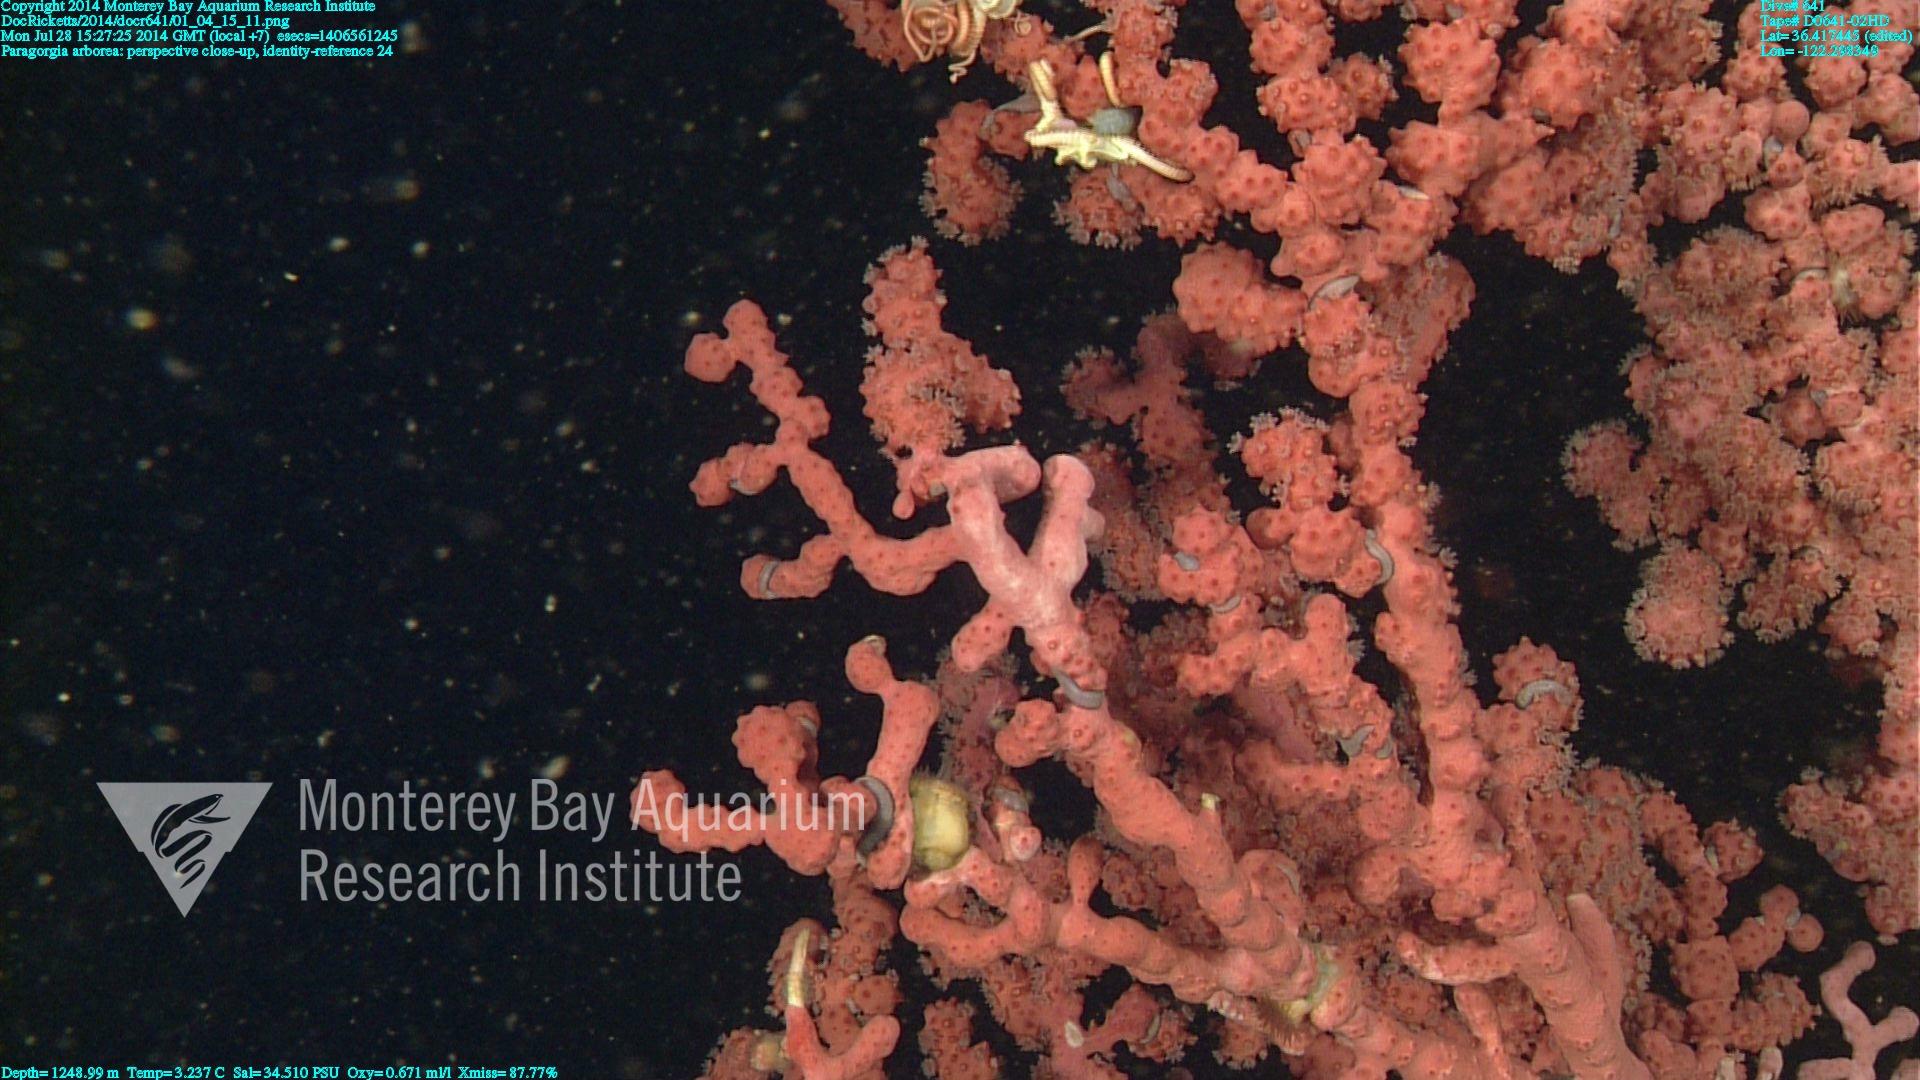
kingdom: Animalia
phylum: Cnidaria
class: Anthozoa
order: Scleralcyonacea
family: Coralliidae
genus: Paragorgia
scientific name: Paragorgia arborea
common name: Bubble gum coral
